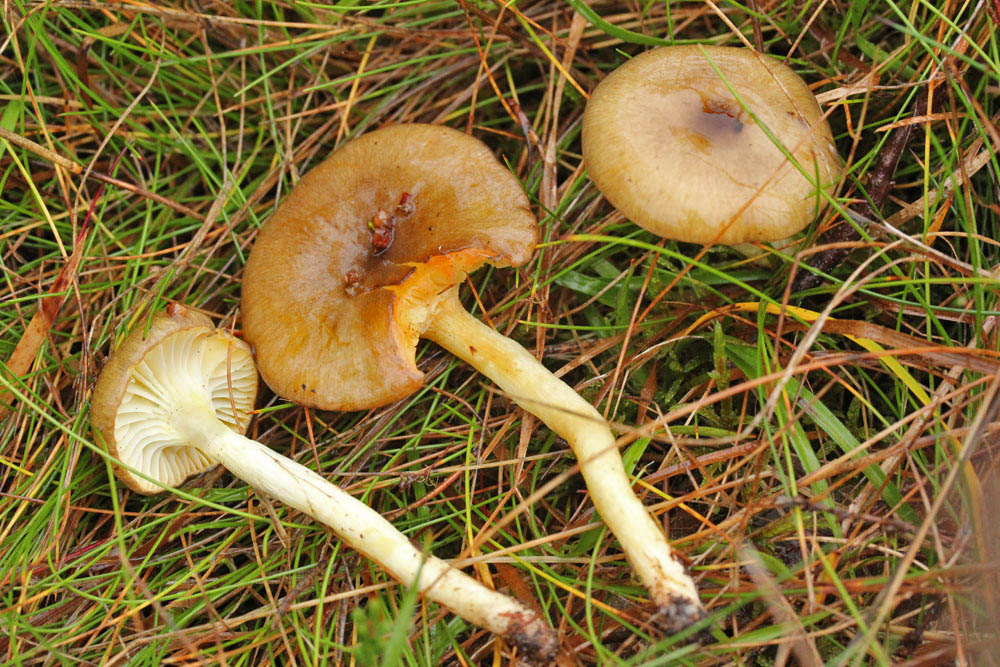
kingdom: Fungi
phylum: Basidiomycota
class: Agaricomycetes
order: Agaricales
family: Hygrophoraceae
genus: Hygrophorus
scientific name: Hygrophorus hypothejus
